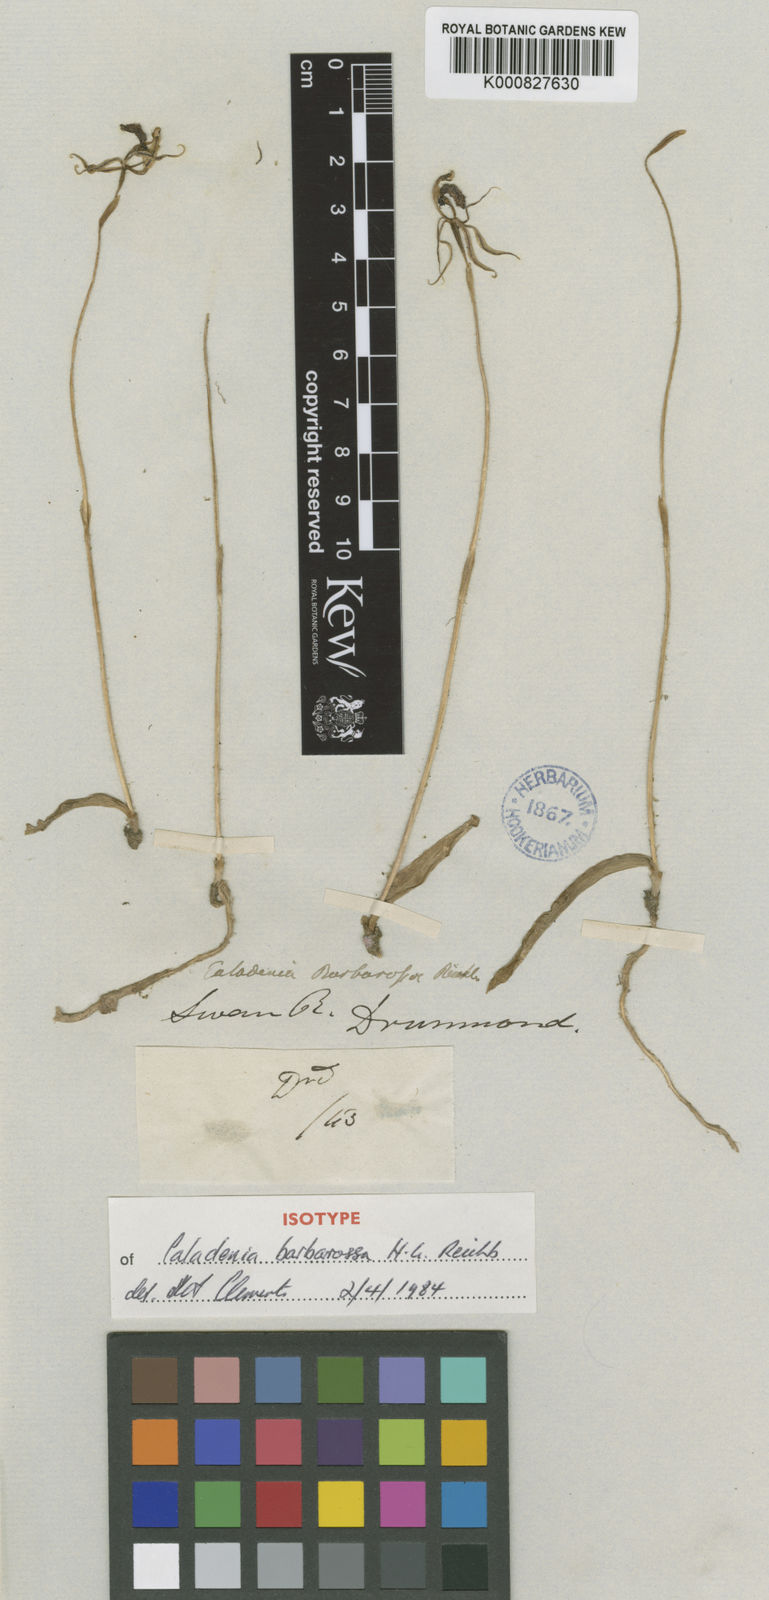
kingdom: Plantae
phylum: Tracheophyta
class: Liliopsida
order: Asparagales
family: Orchidaceae
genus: Caladenia
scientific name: Caladenia barbarossa
